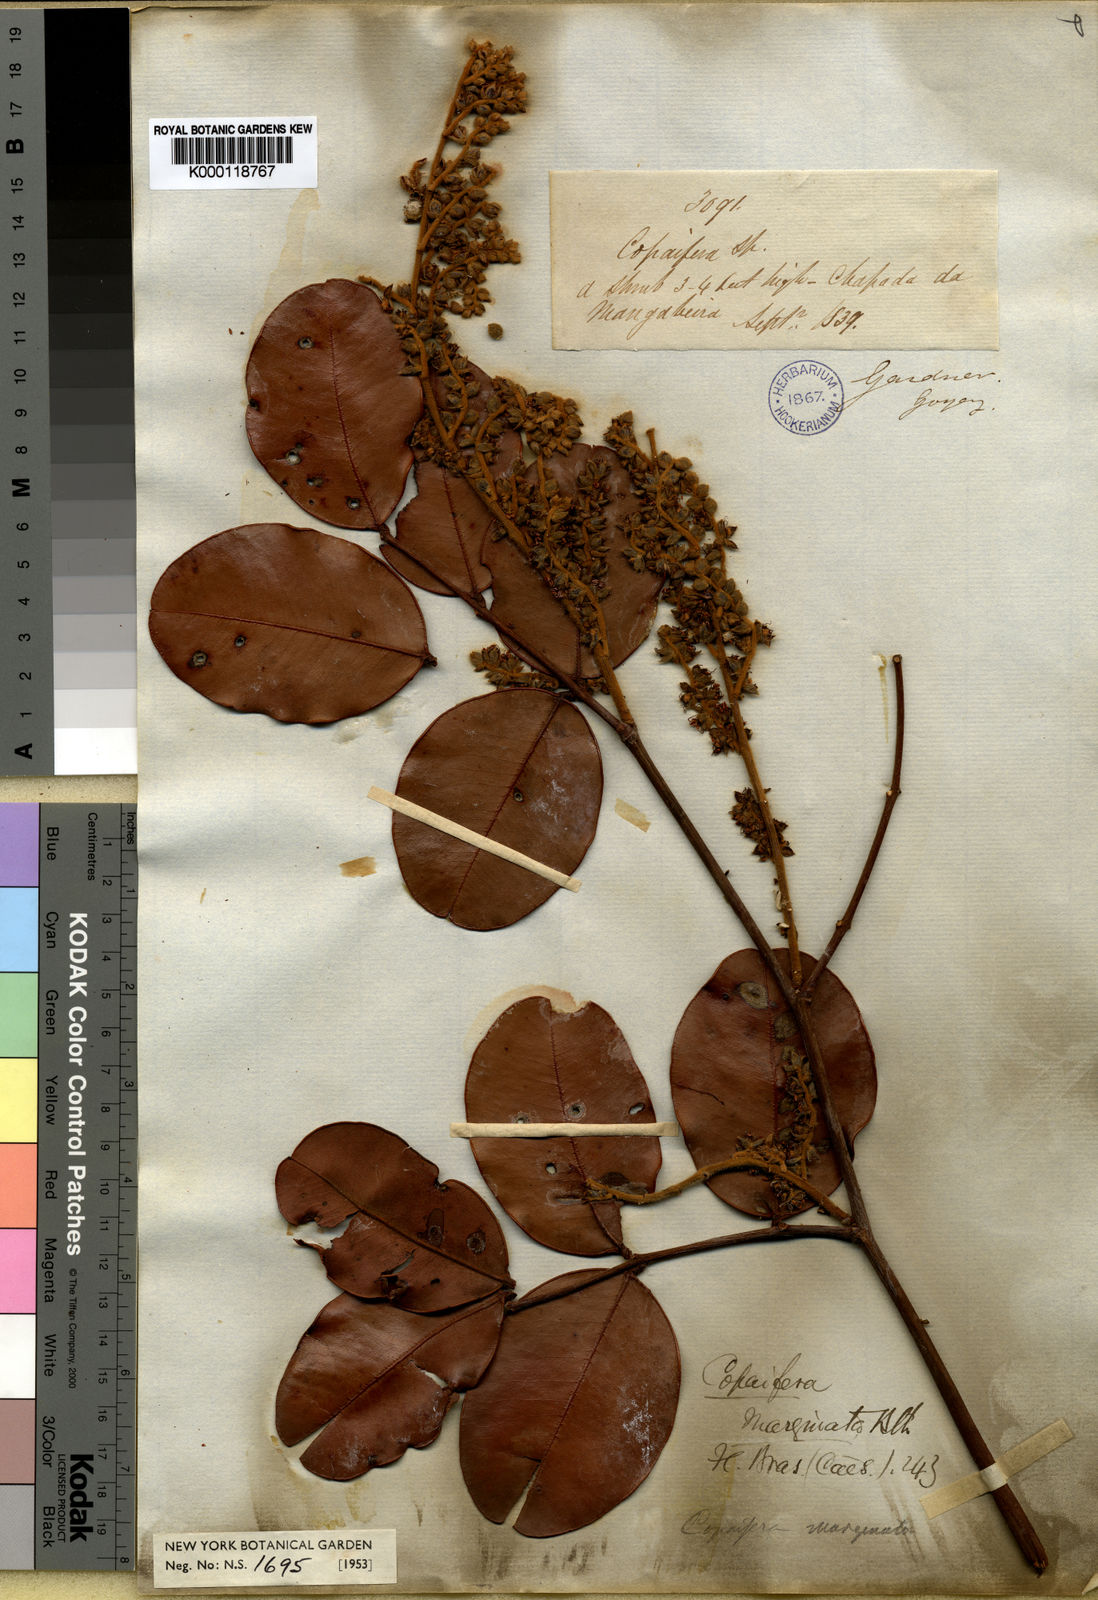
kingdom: Plantae
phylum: Tracheophyta
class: Magnoliopsida
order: Fabales
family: Fabaceae
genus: Copaifera
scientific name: Copaifera marginata
